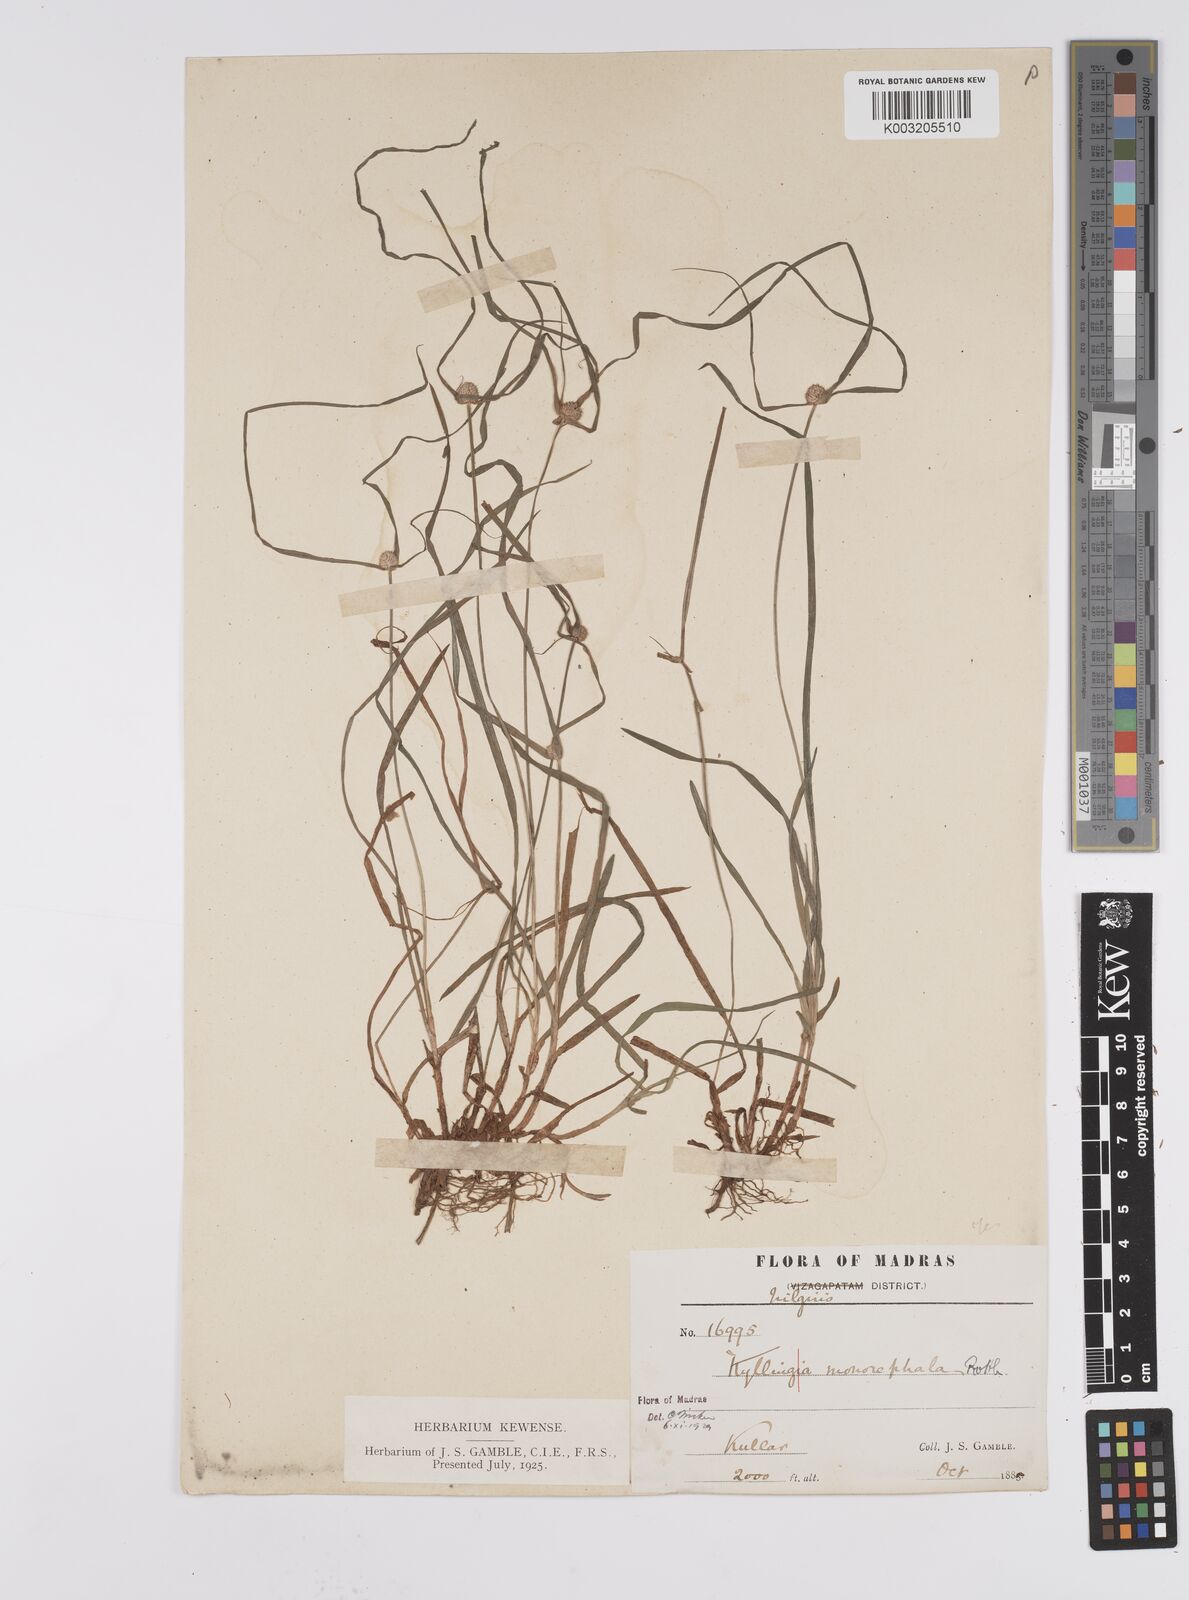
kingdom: Plantae
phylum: Tracheophyta
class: Liliopsida
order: Poales
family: Cyperaceae
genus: Cyperus
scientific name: Cyperus nemoralis
